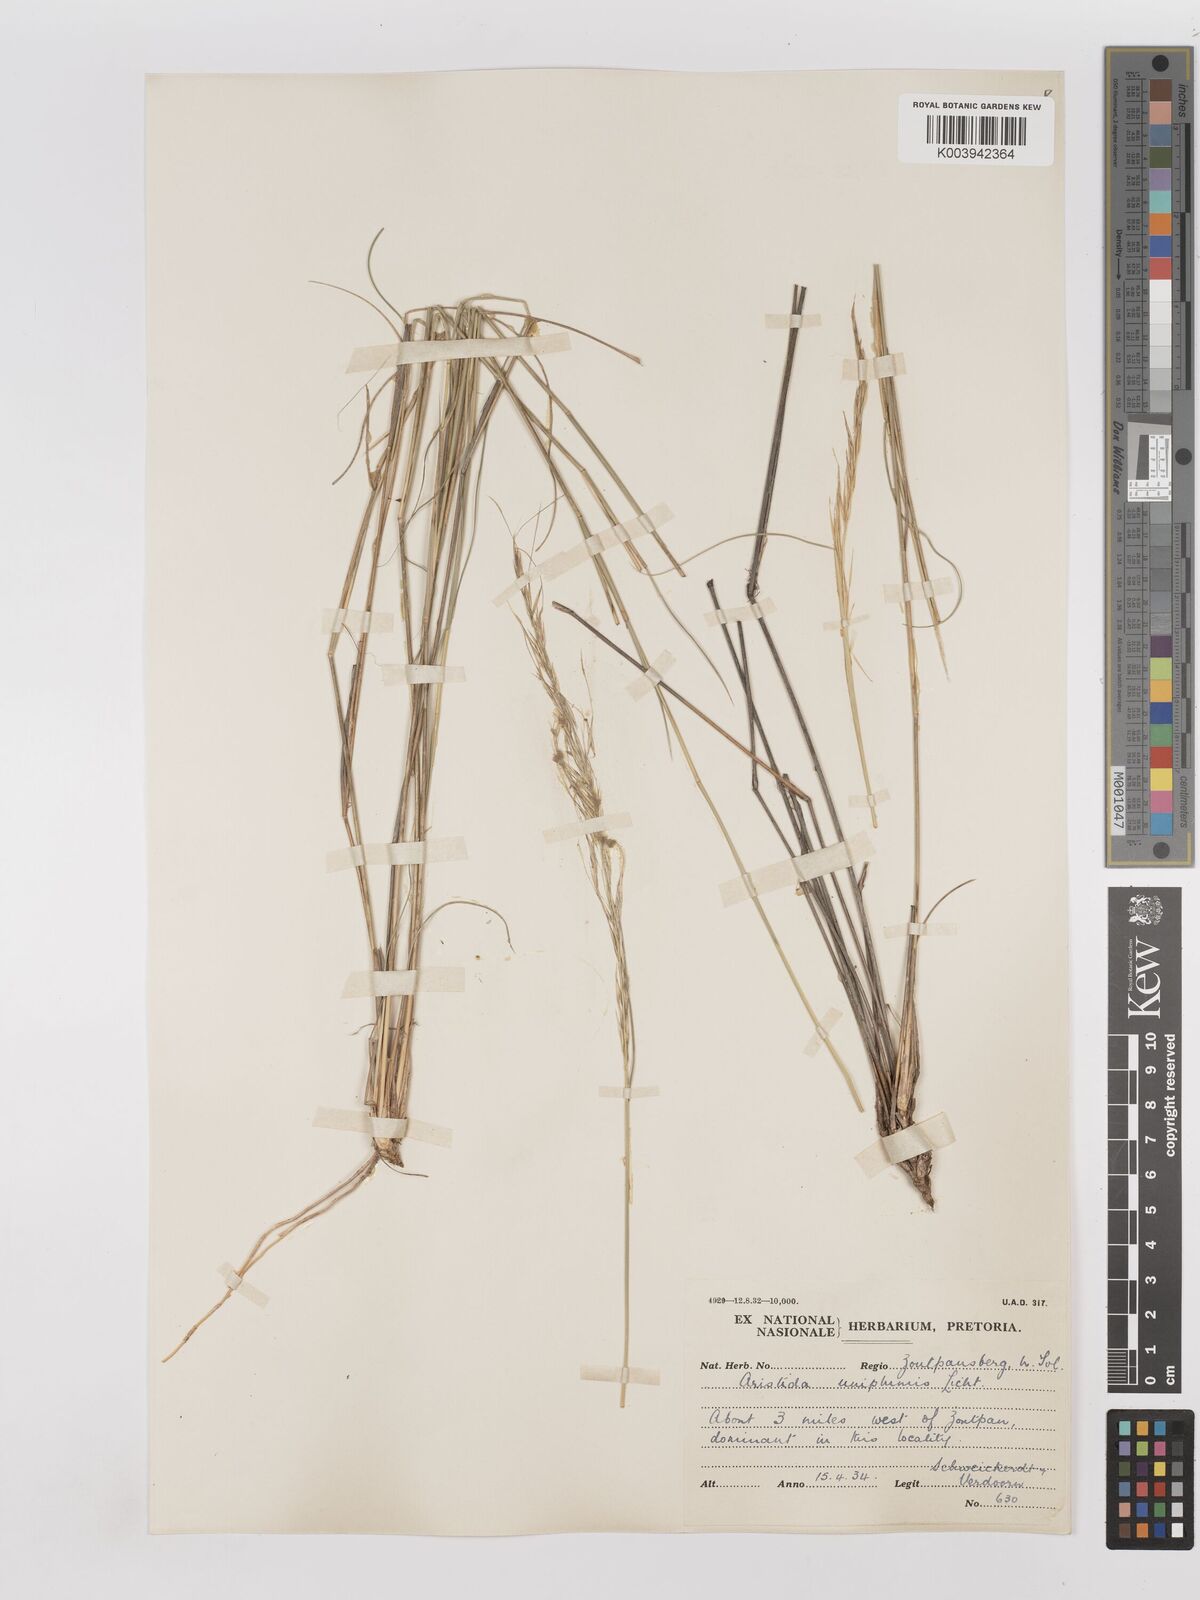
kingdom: Plantae
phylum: Tracheophyta
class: Liliopsida
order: Poales
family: Poaceae
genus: Stipagrostis
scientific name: Stipagrostis uniplumis
